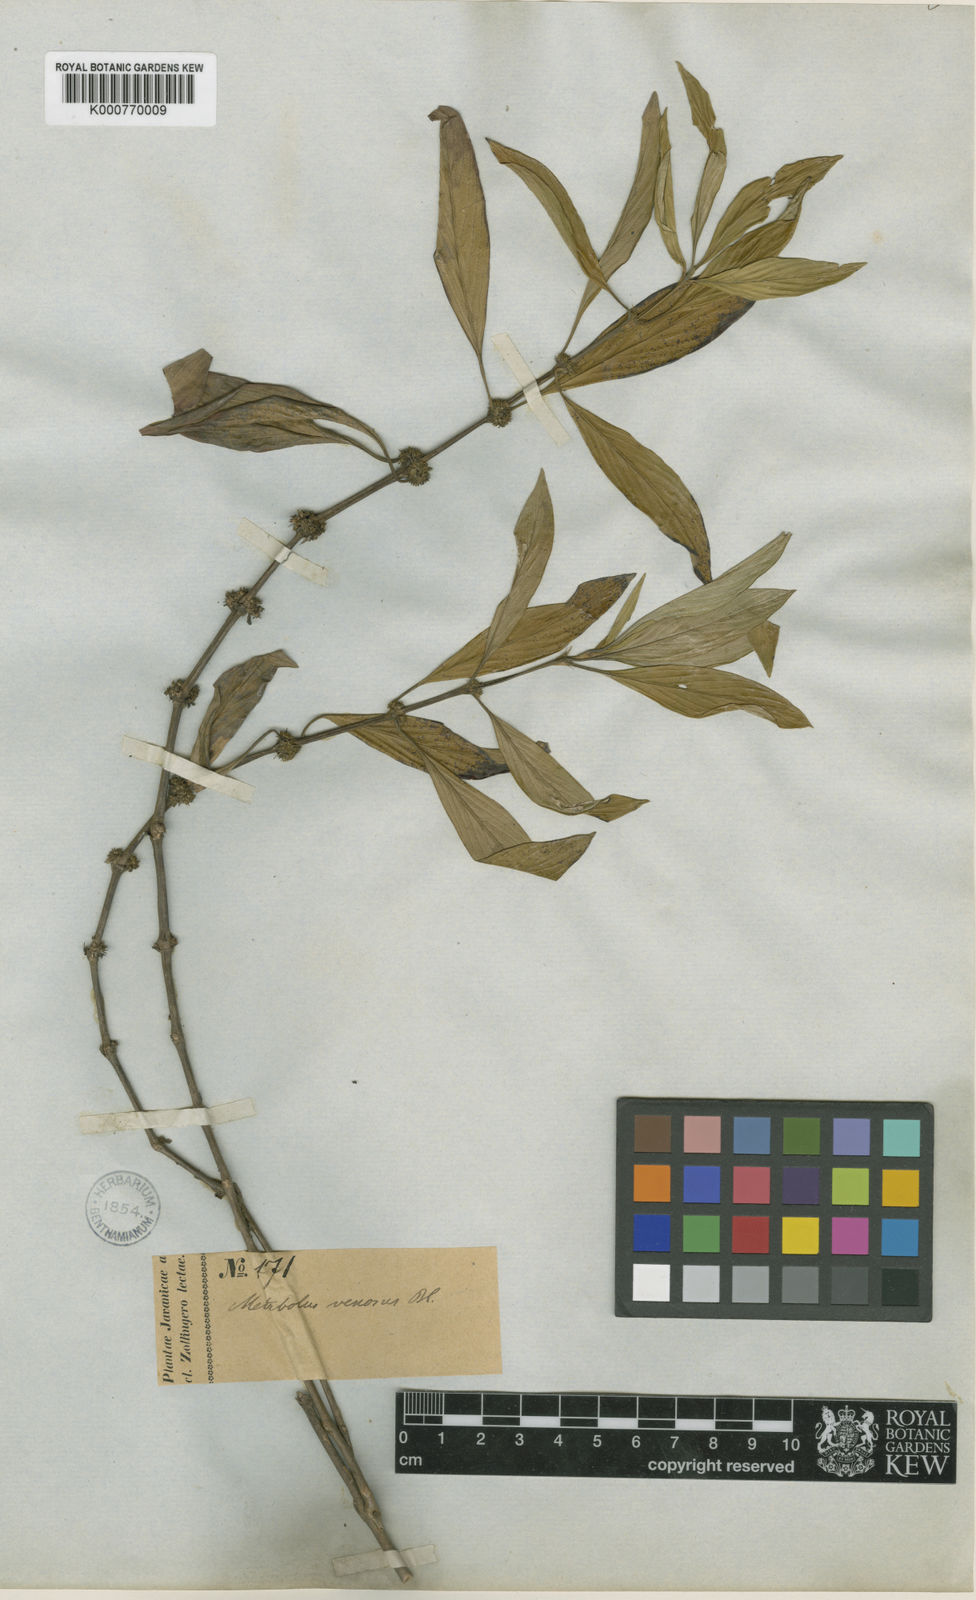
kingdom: Plantae
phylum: Tracheophyta
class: Magnoliopsida
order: Gentianales
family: Rubiaceae
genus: Exallage
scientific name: Exallage auricularia
